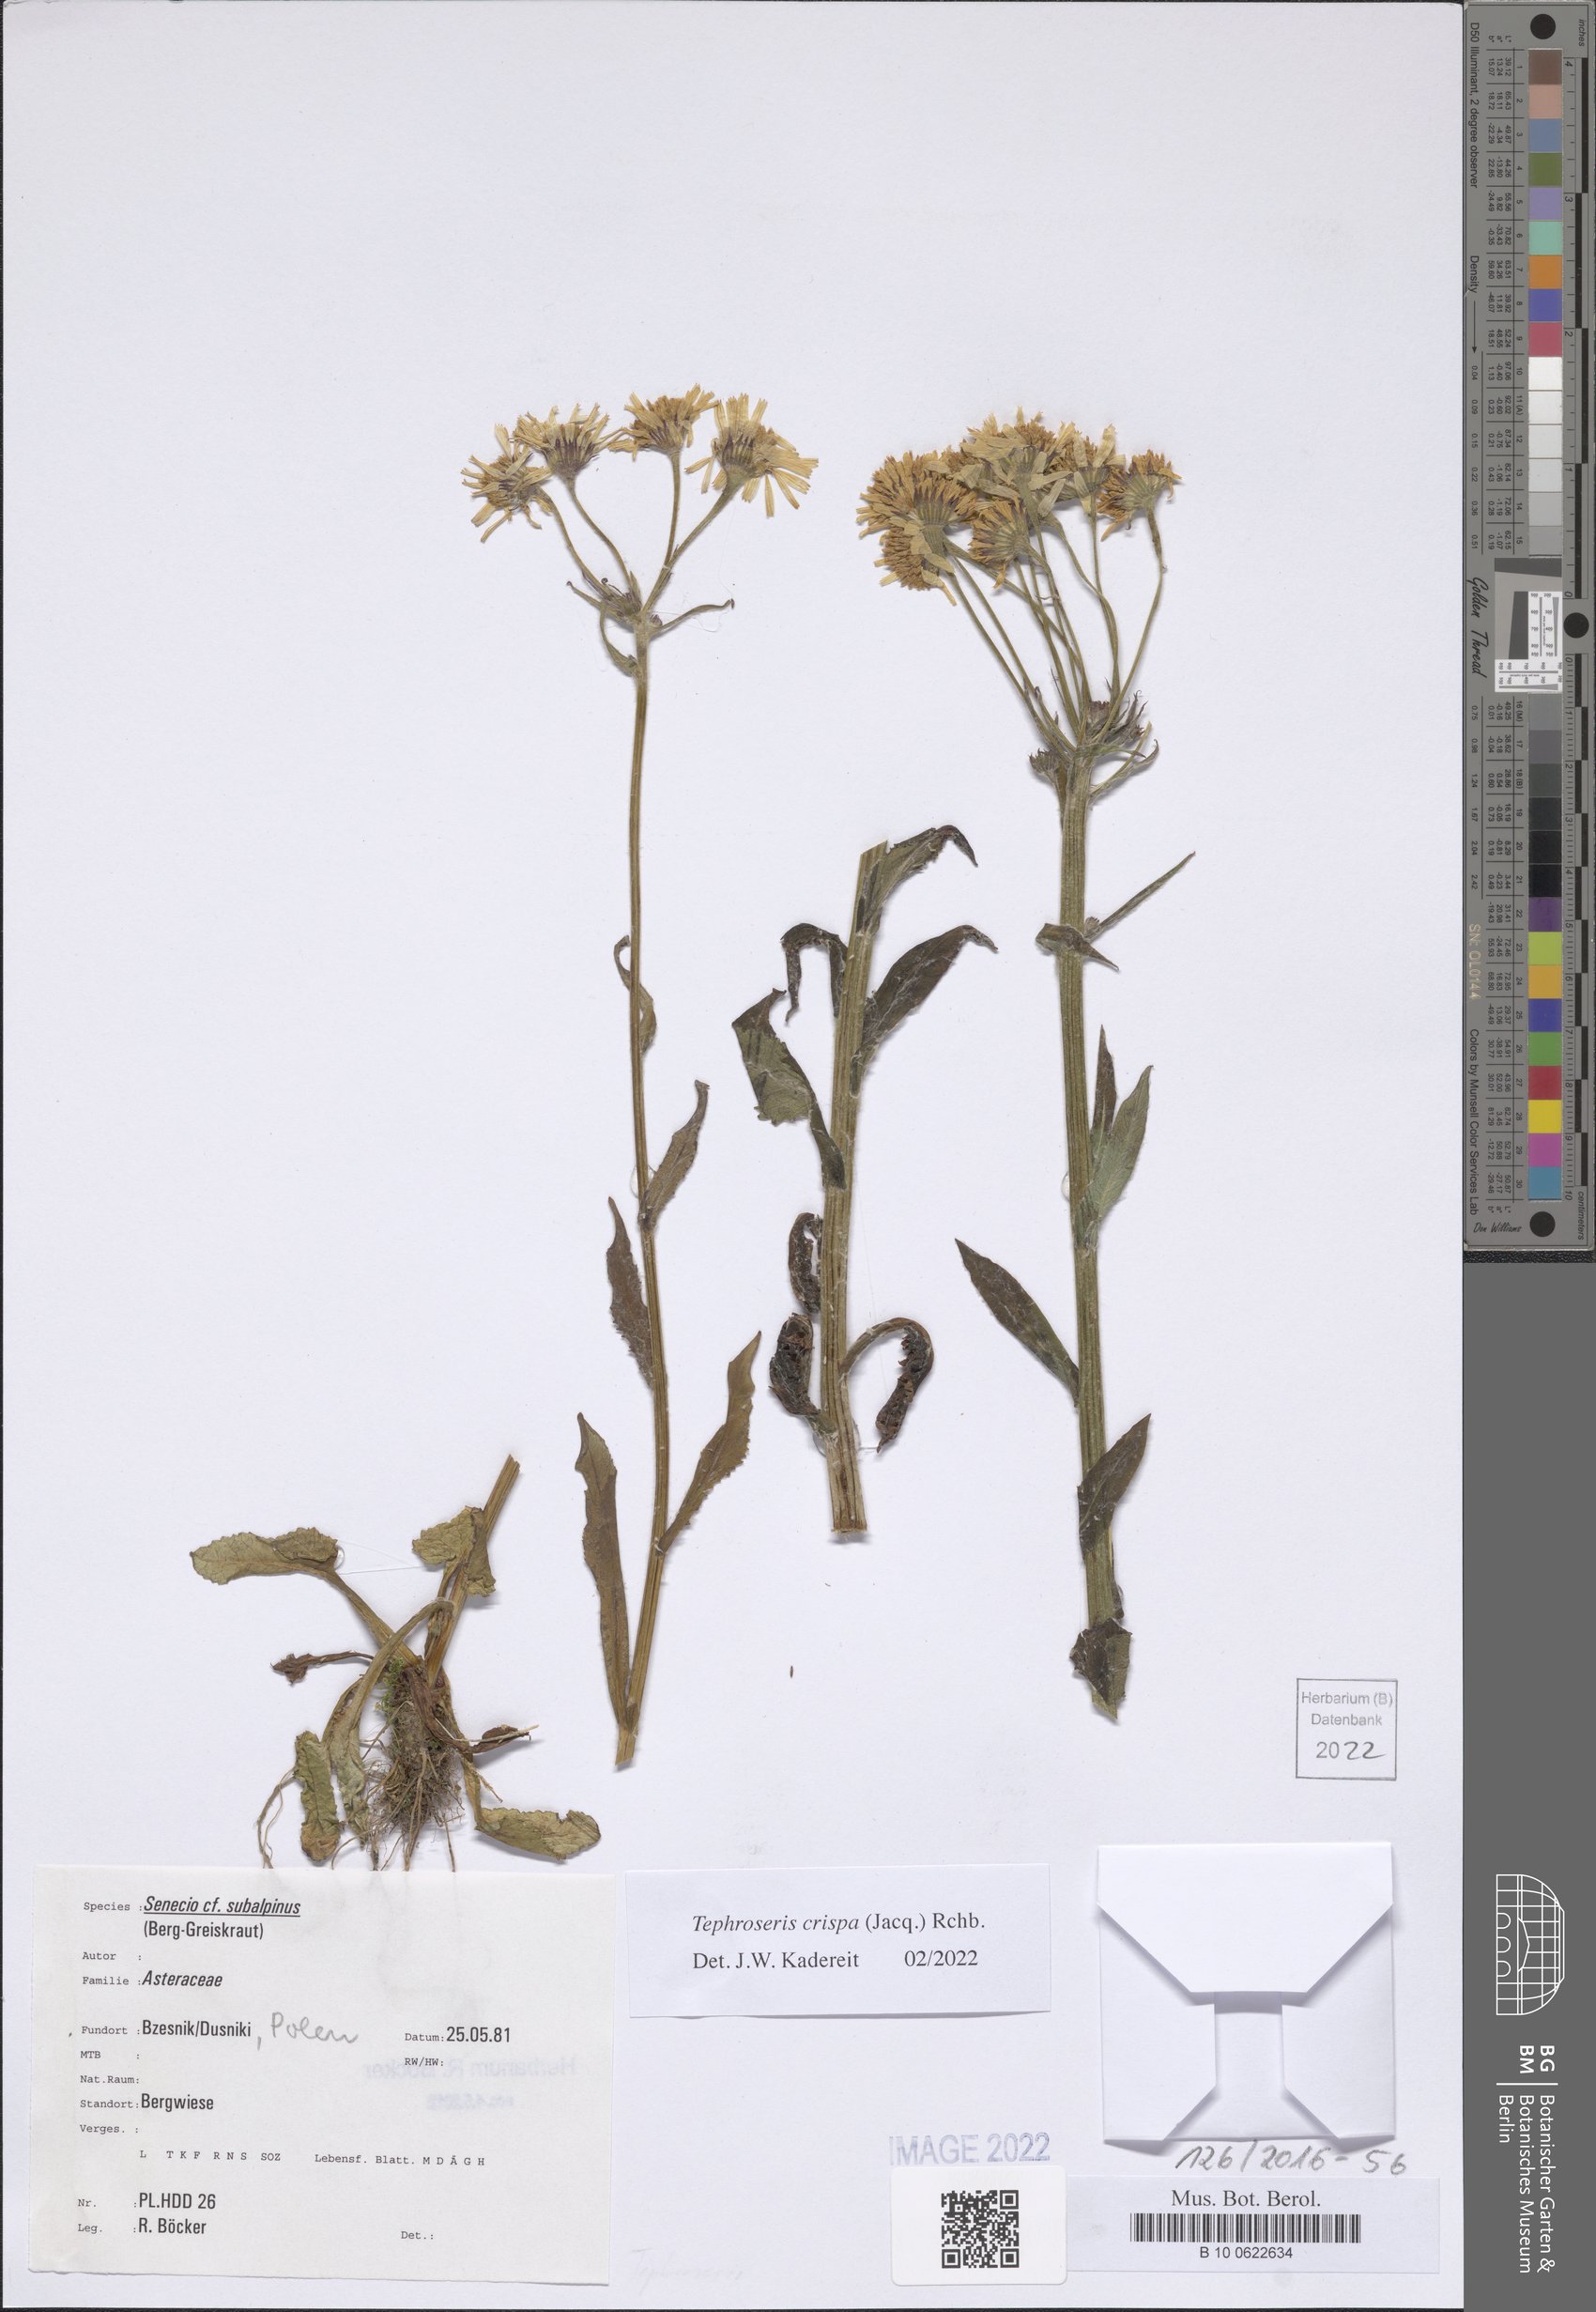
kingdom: Plantae
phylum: Tracheophyta
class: Magnoliopsida
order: Asterales
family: Asteraceae
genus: Tephroseris
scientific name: Tephroseris crispa
